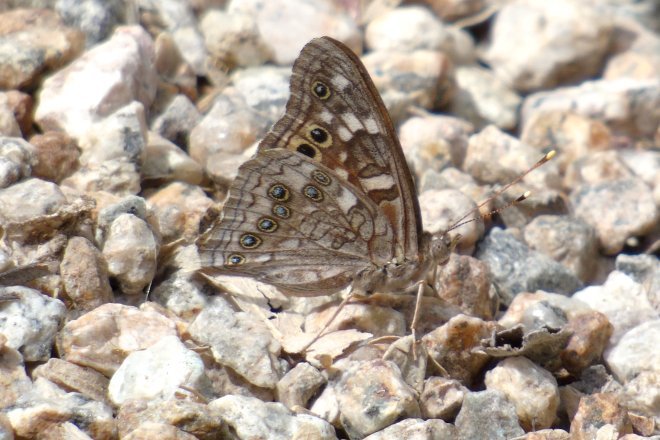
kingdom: Animalia
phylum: Arthropoda
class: Insecta
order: Lepidoptera
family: Nymphalidae
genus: Asterocampa
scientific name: Asterocampa leilia
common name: Empress Leilia
